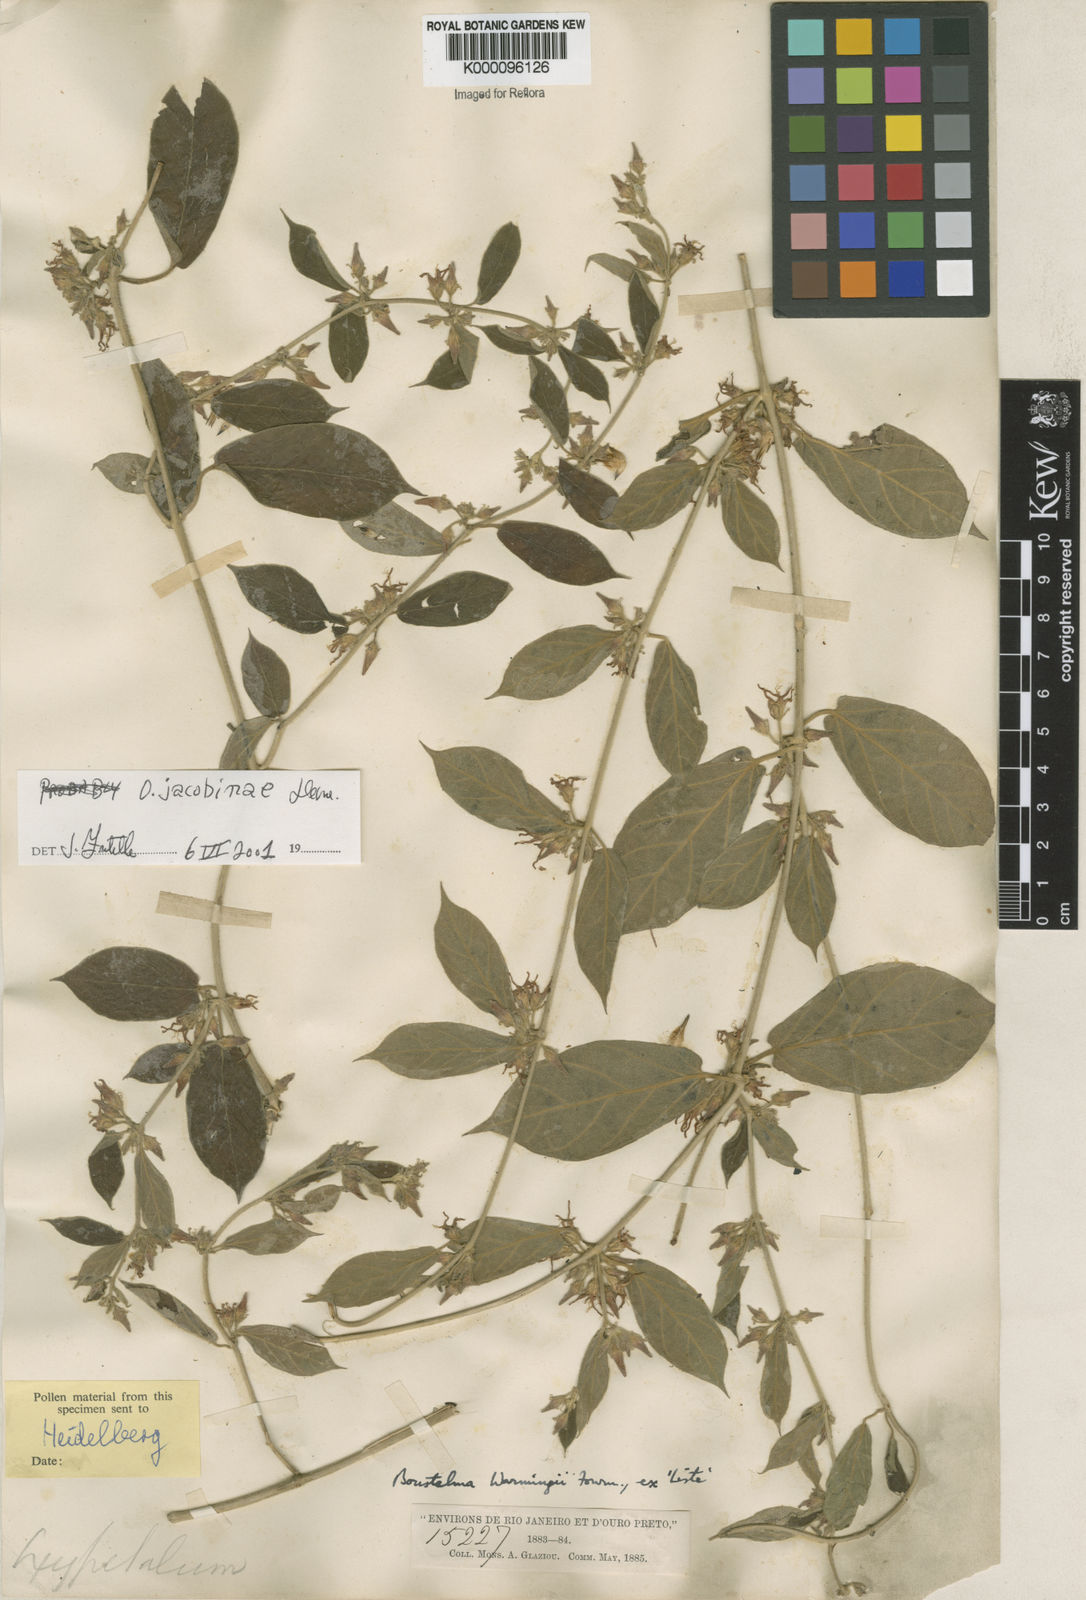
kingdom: Plantae
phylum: Tracheophyta
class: Magnoliopsida
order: Gentianales
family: Apocynaceae
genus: Oxypetalum
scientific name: Oxypetalum jacobinae
